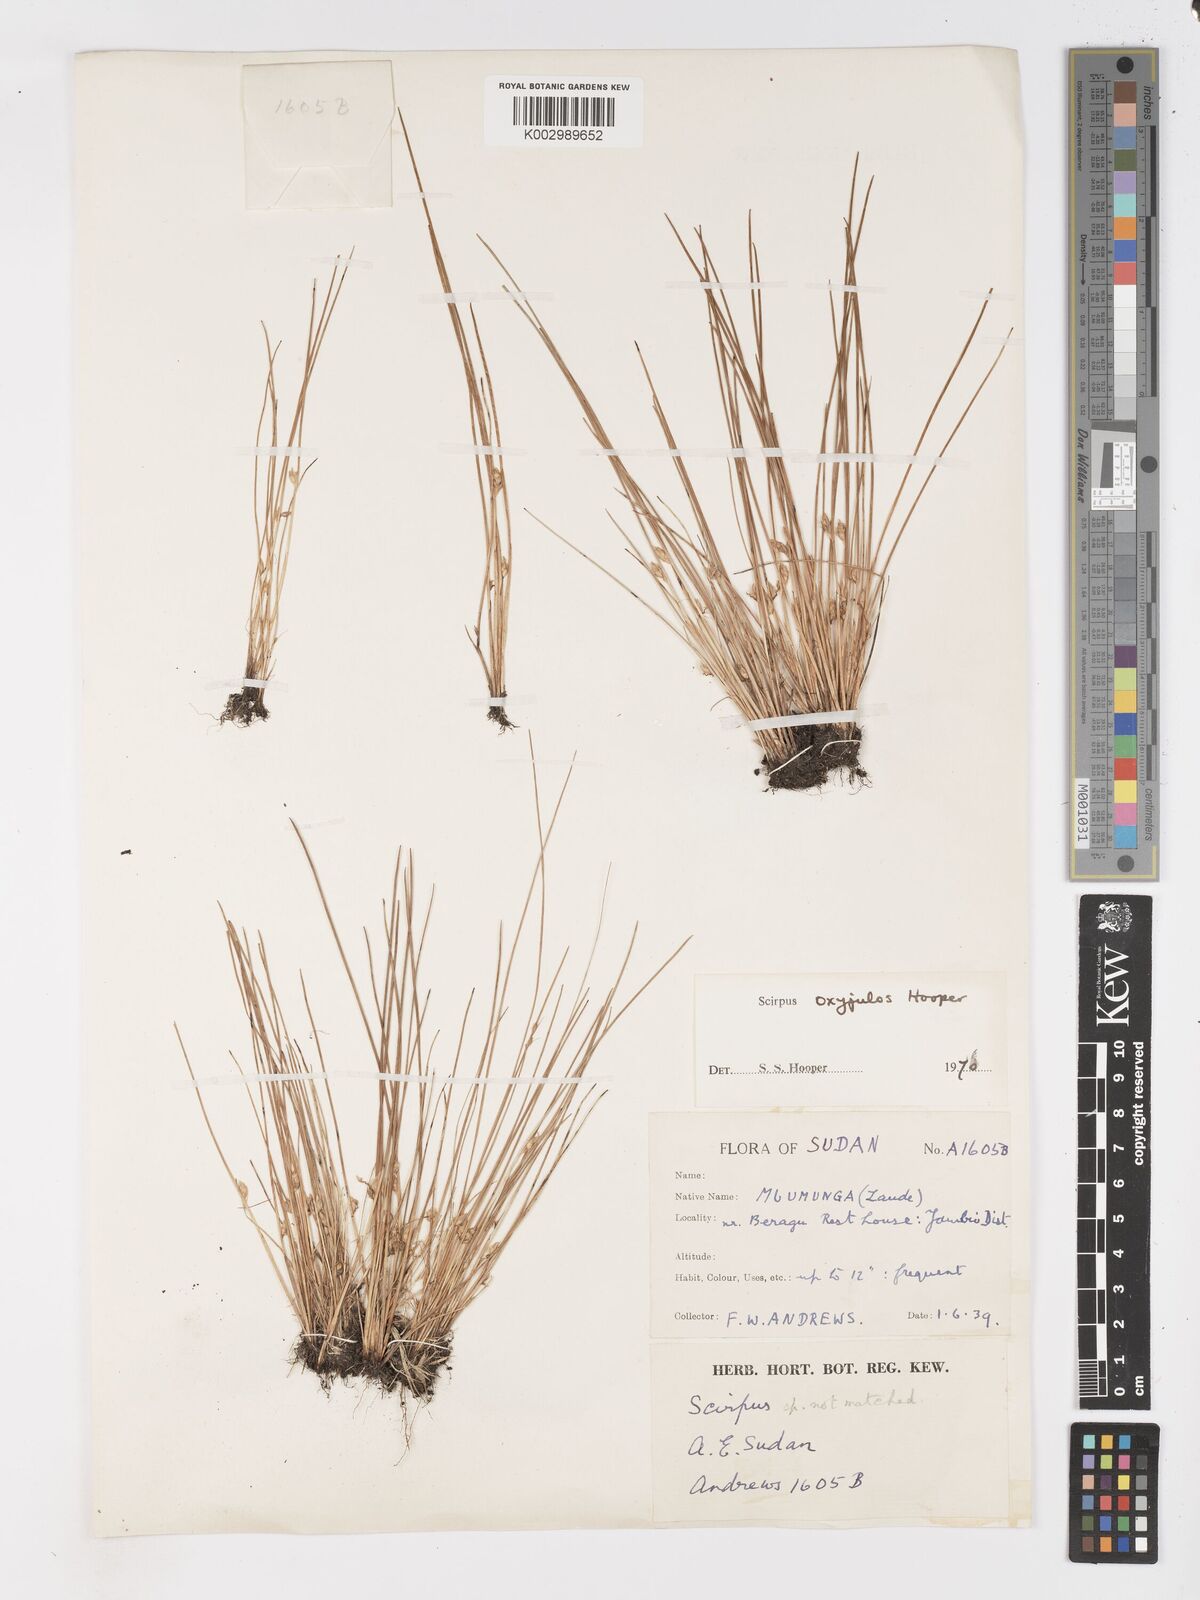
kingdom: Plantae
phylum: Tracheophyta
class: Liliopsida
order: Poales
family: Cyperaceae
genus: Schoenoplectiella
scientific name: Schoenoplectiella oxyjulos
